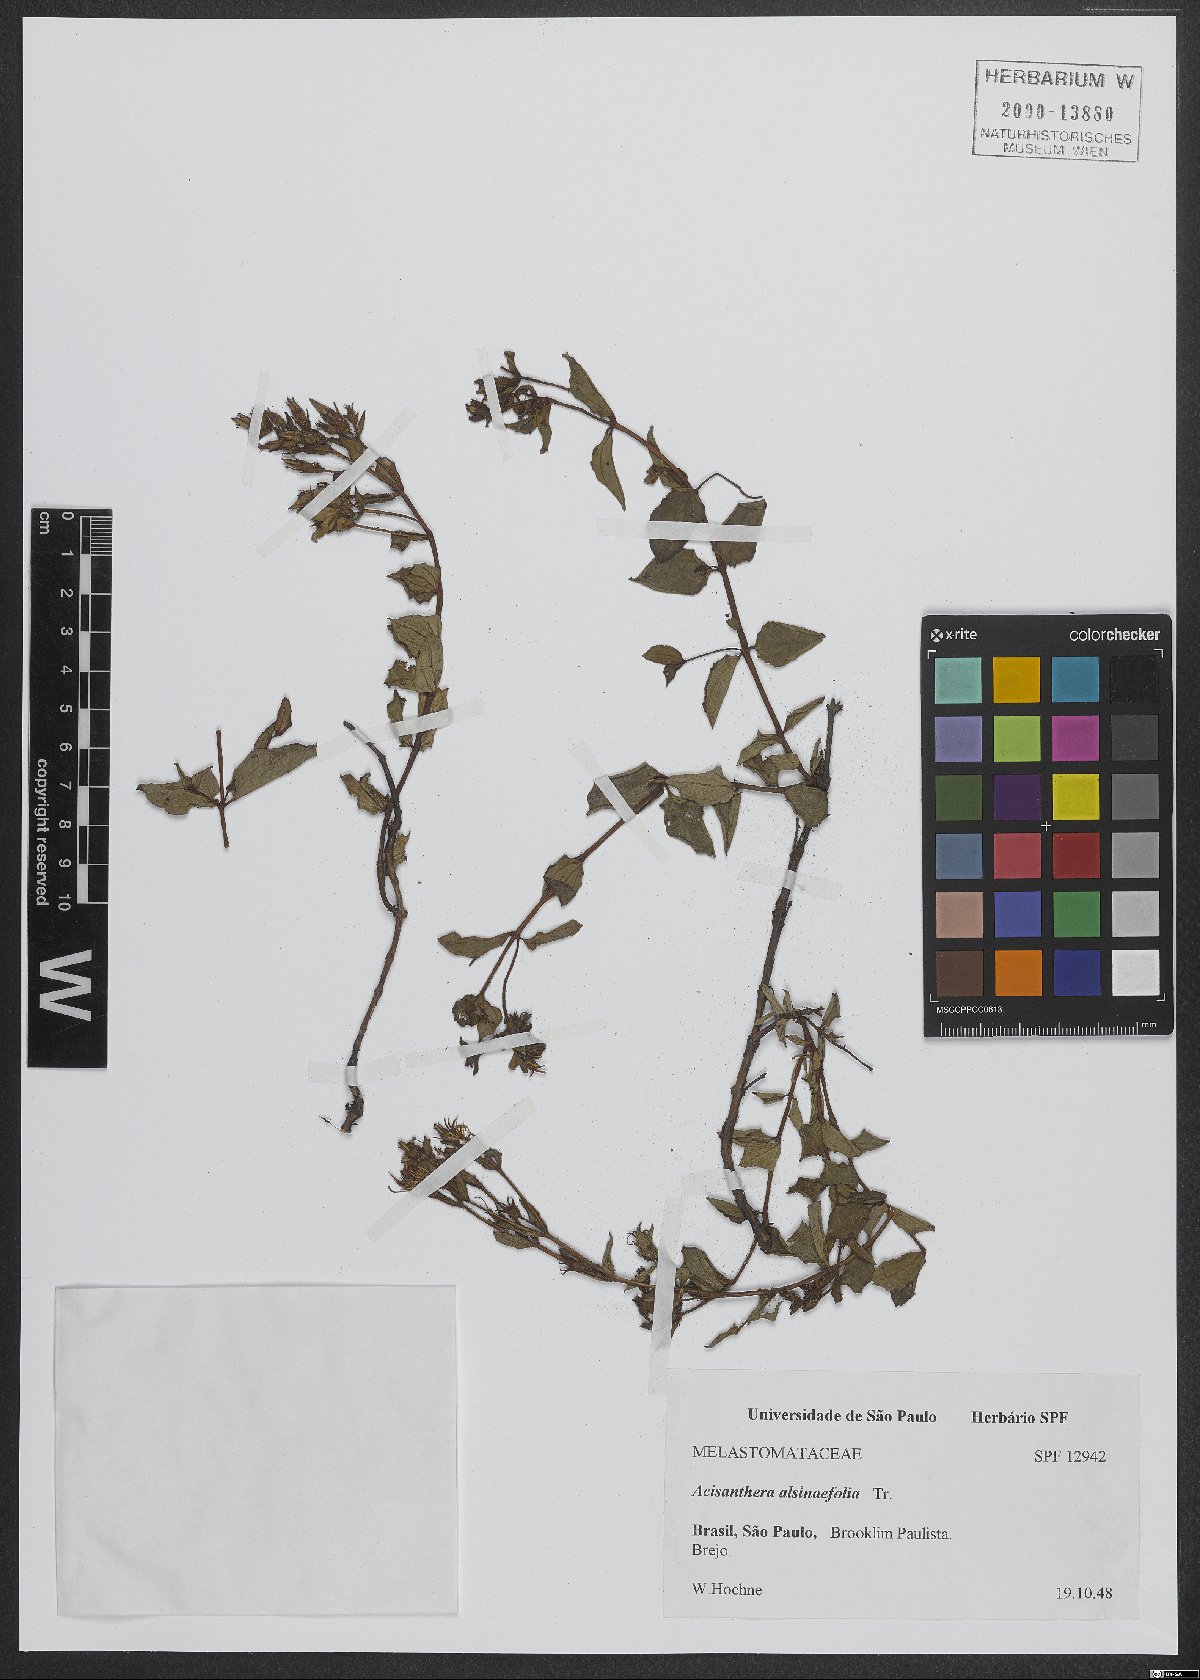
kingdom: Plantae
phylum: Tracheophyta
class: Magnoliopsida
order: Myrtales
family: Melastomataceae
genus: Acisanthera
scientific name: Acisanthera alsinefolia
